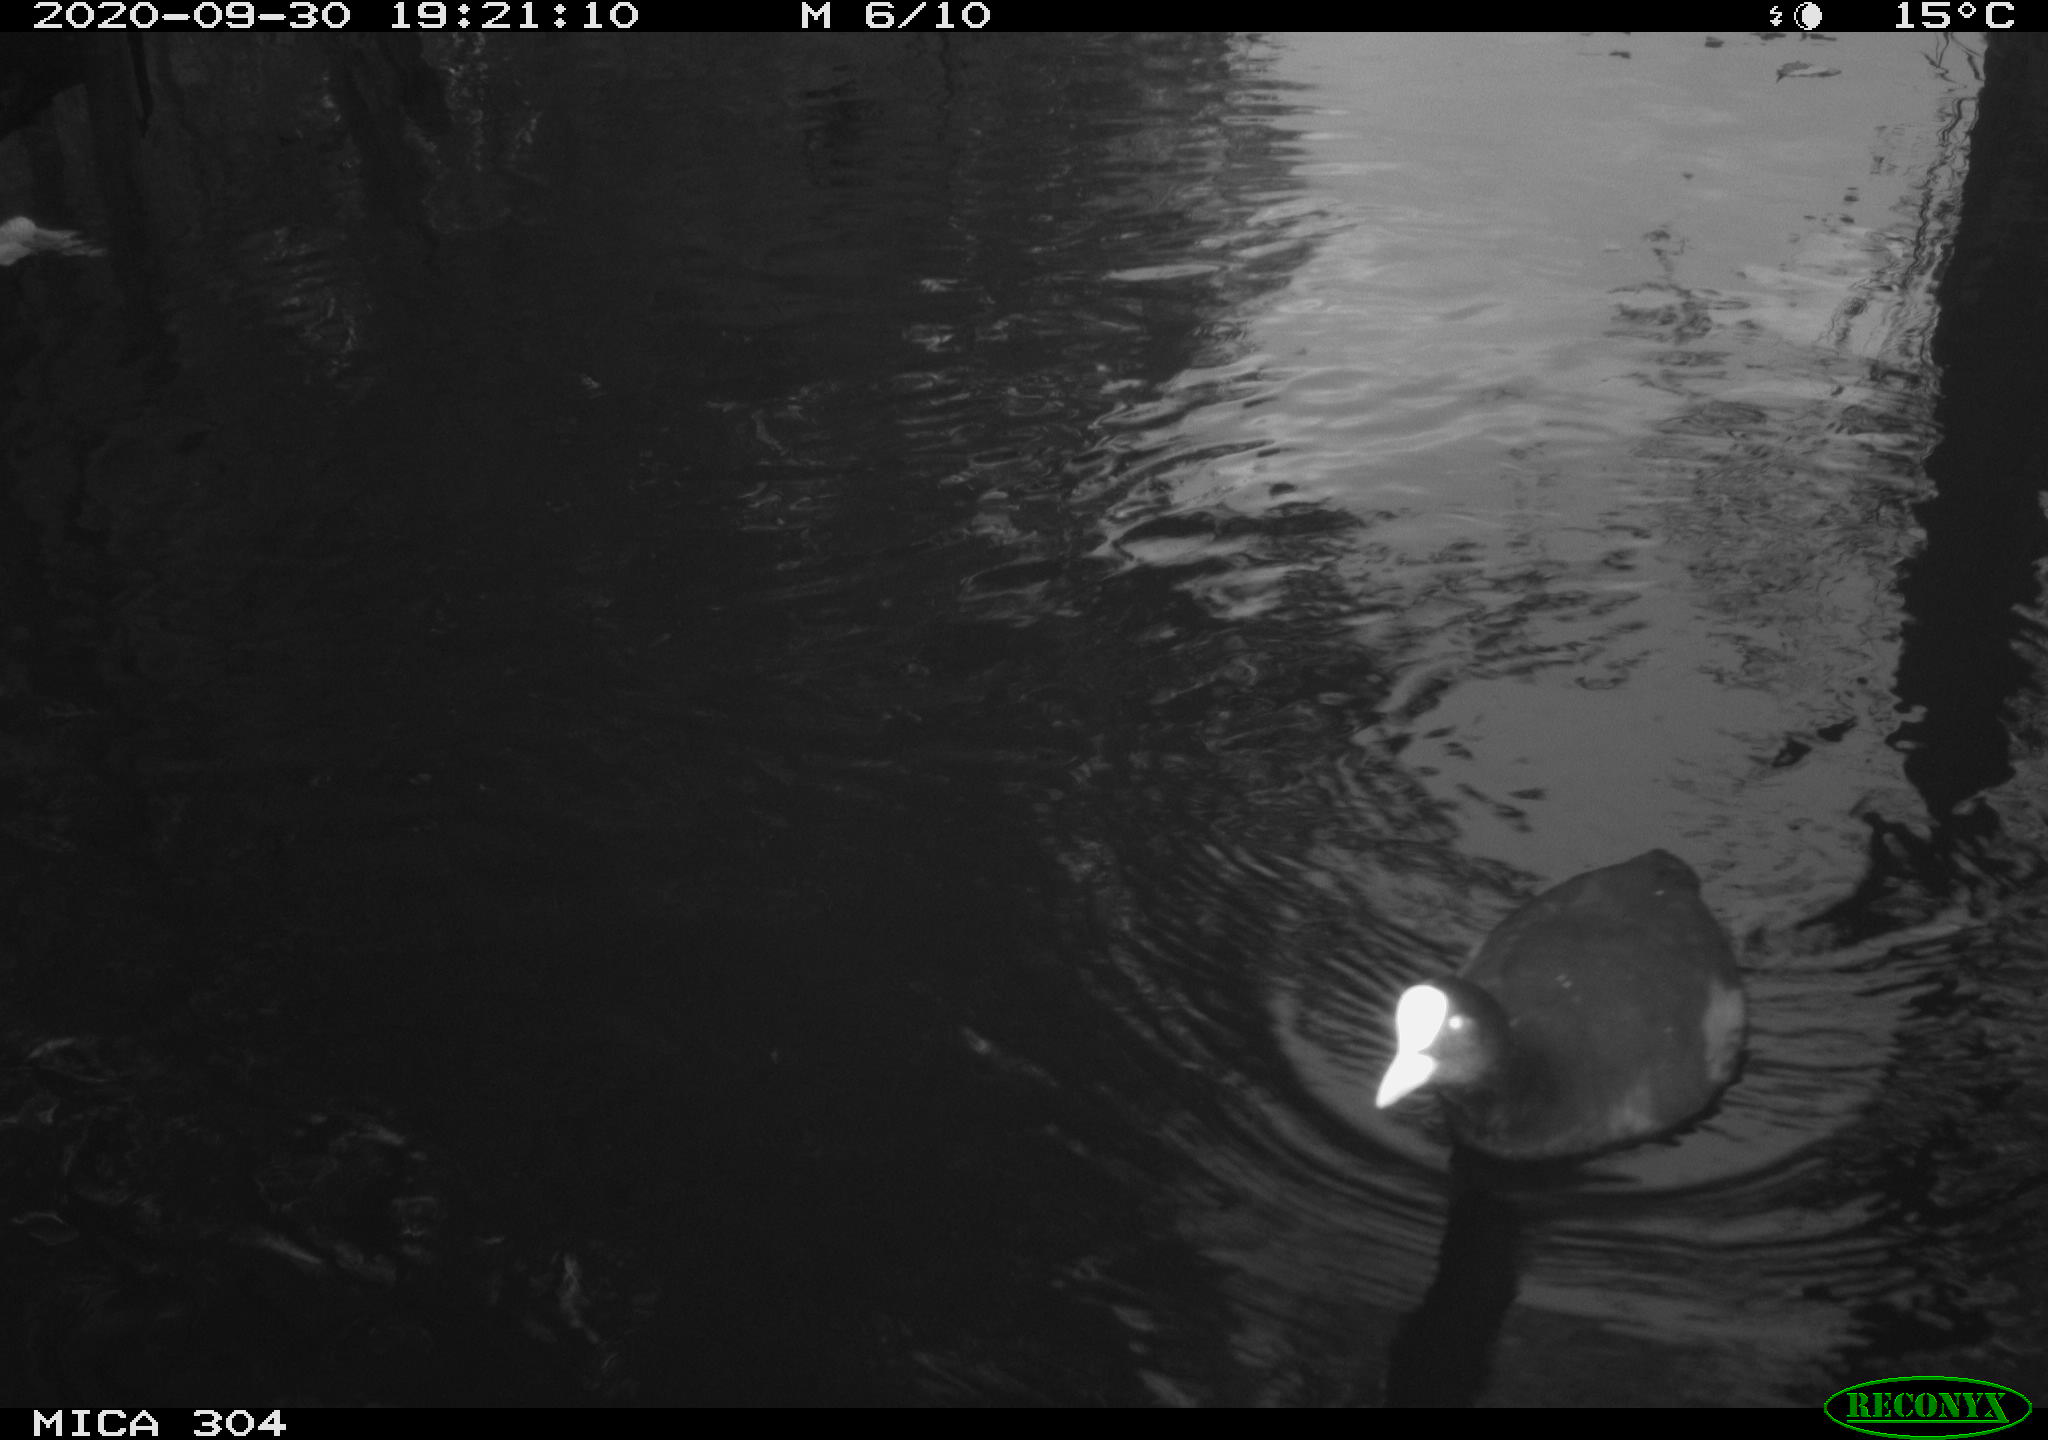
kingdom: Animalia
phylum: Chordata
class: Aves
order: Gruiformes
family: Rallidae
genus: Fulica
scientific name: Fulica atra
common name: Eurasian coot
